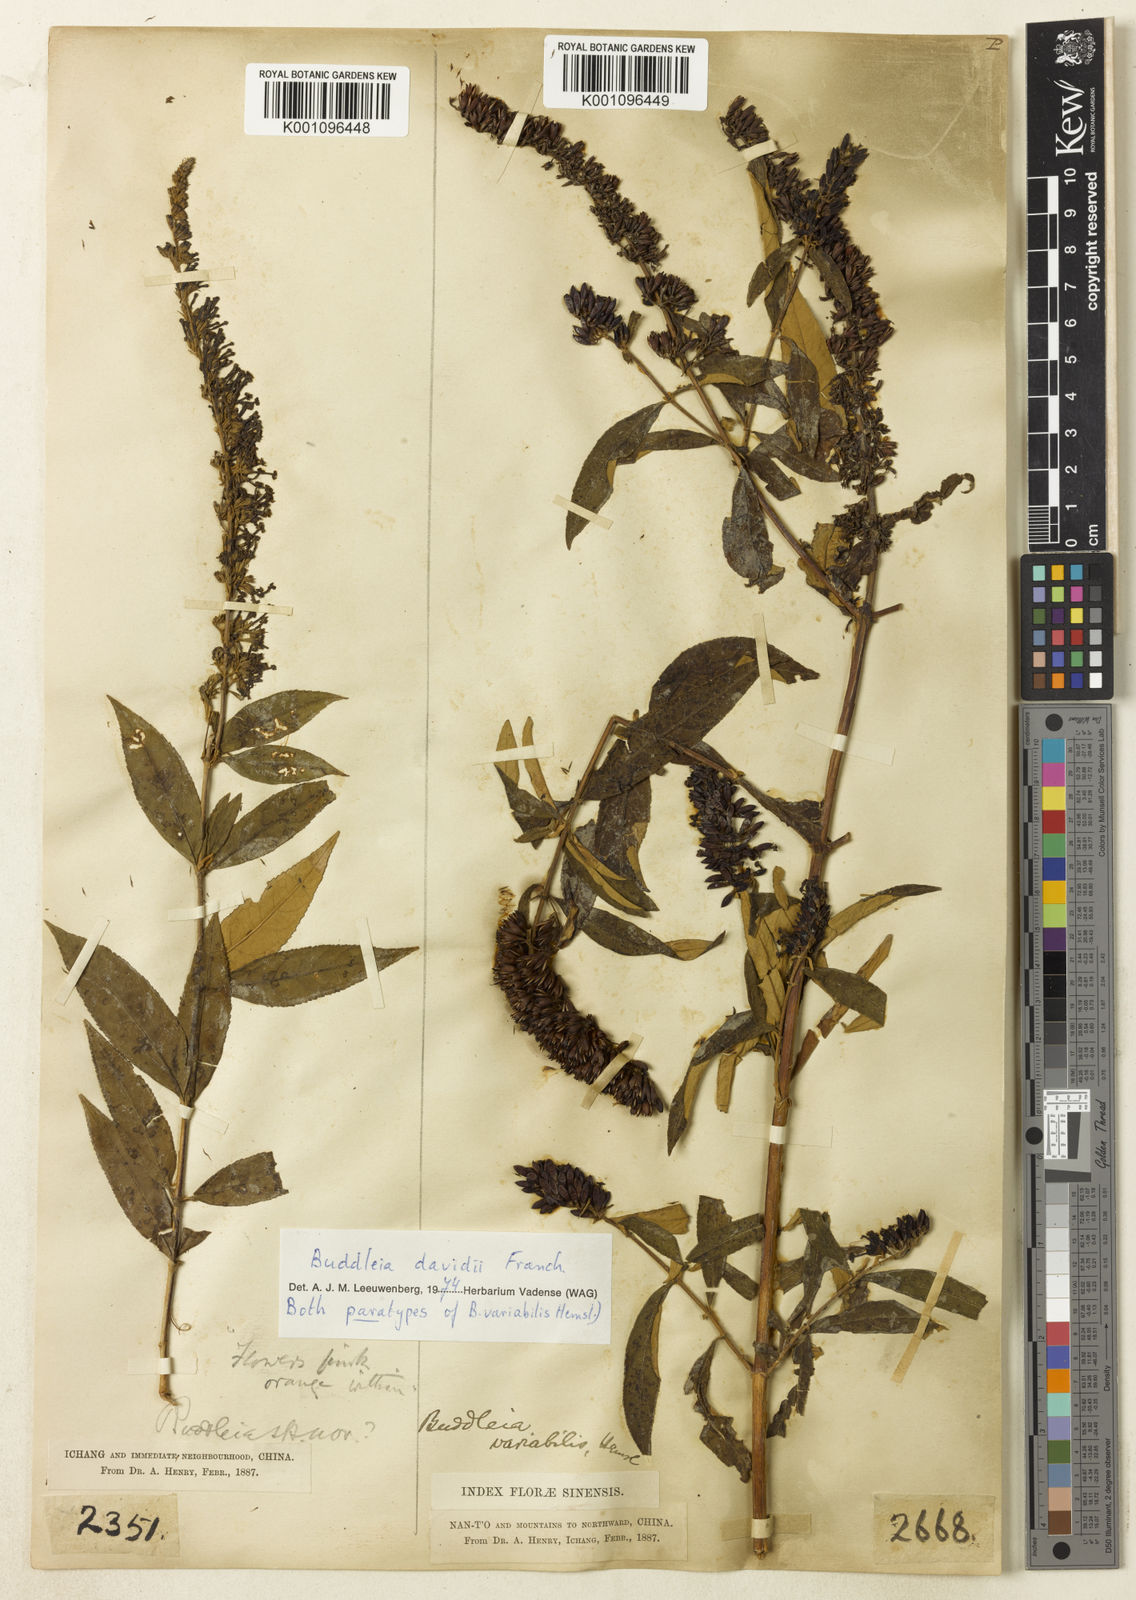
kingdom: Plantae
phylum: Tracheophyta
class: Magnoliopsida
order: Lamiales
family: Scrophulariaceae
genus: Buddleja
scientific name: Buddleja davidii
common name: Butterfly-bush
